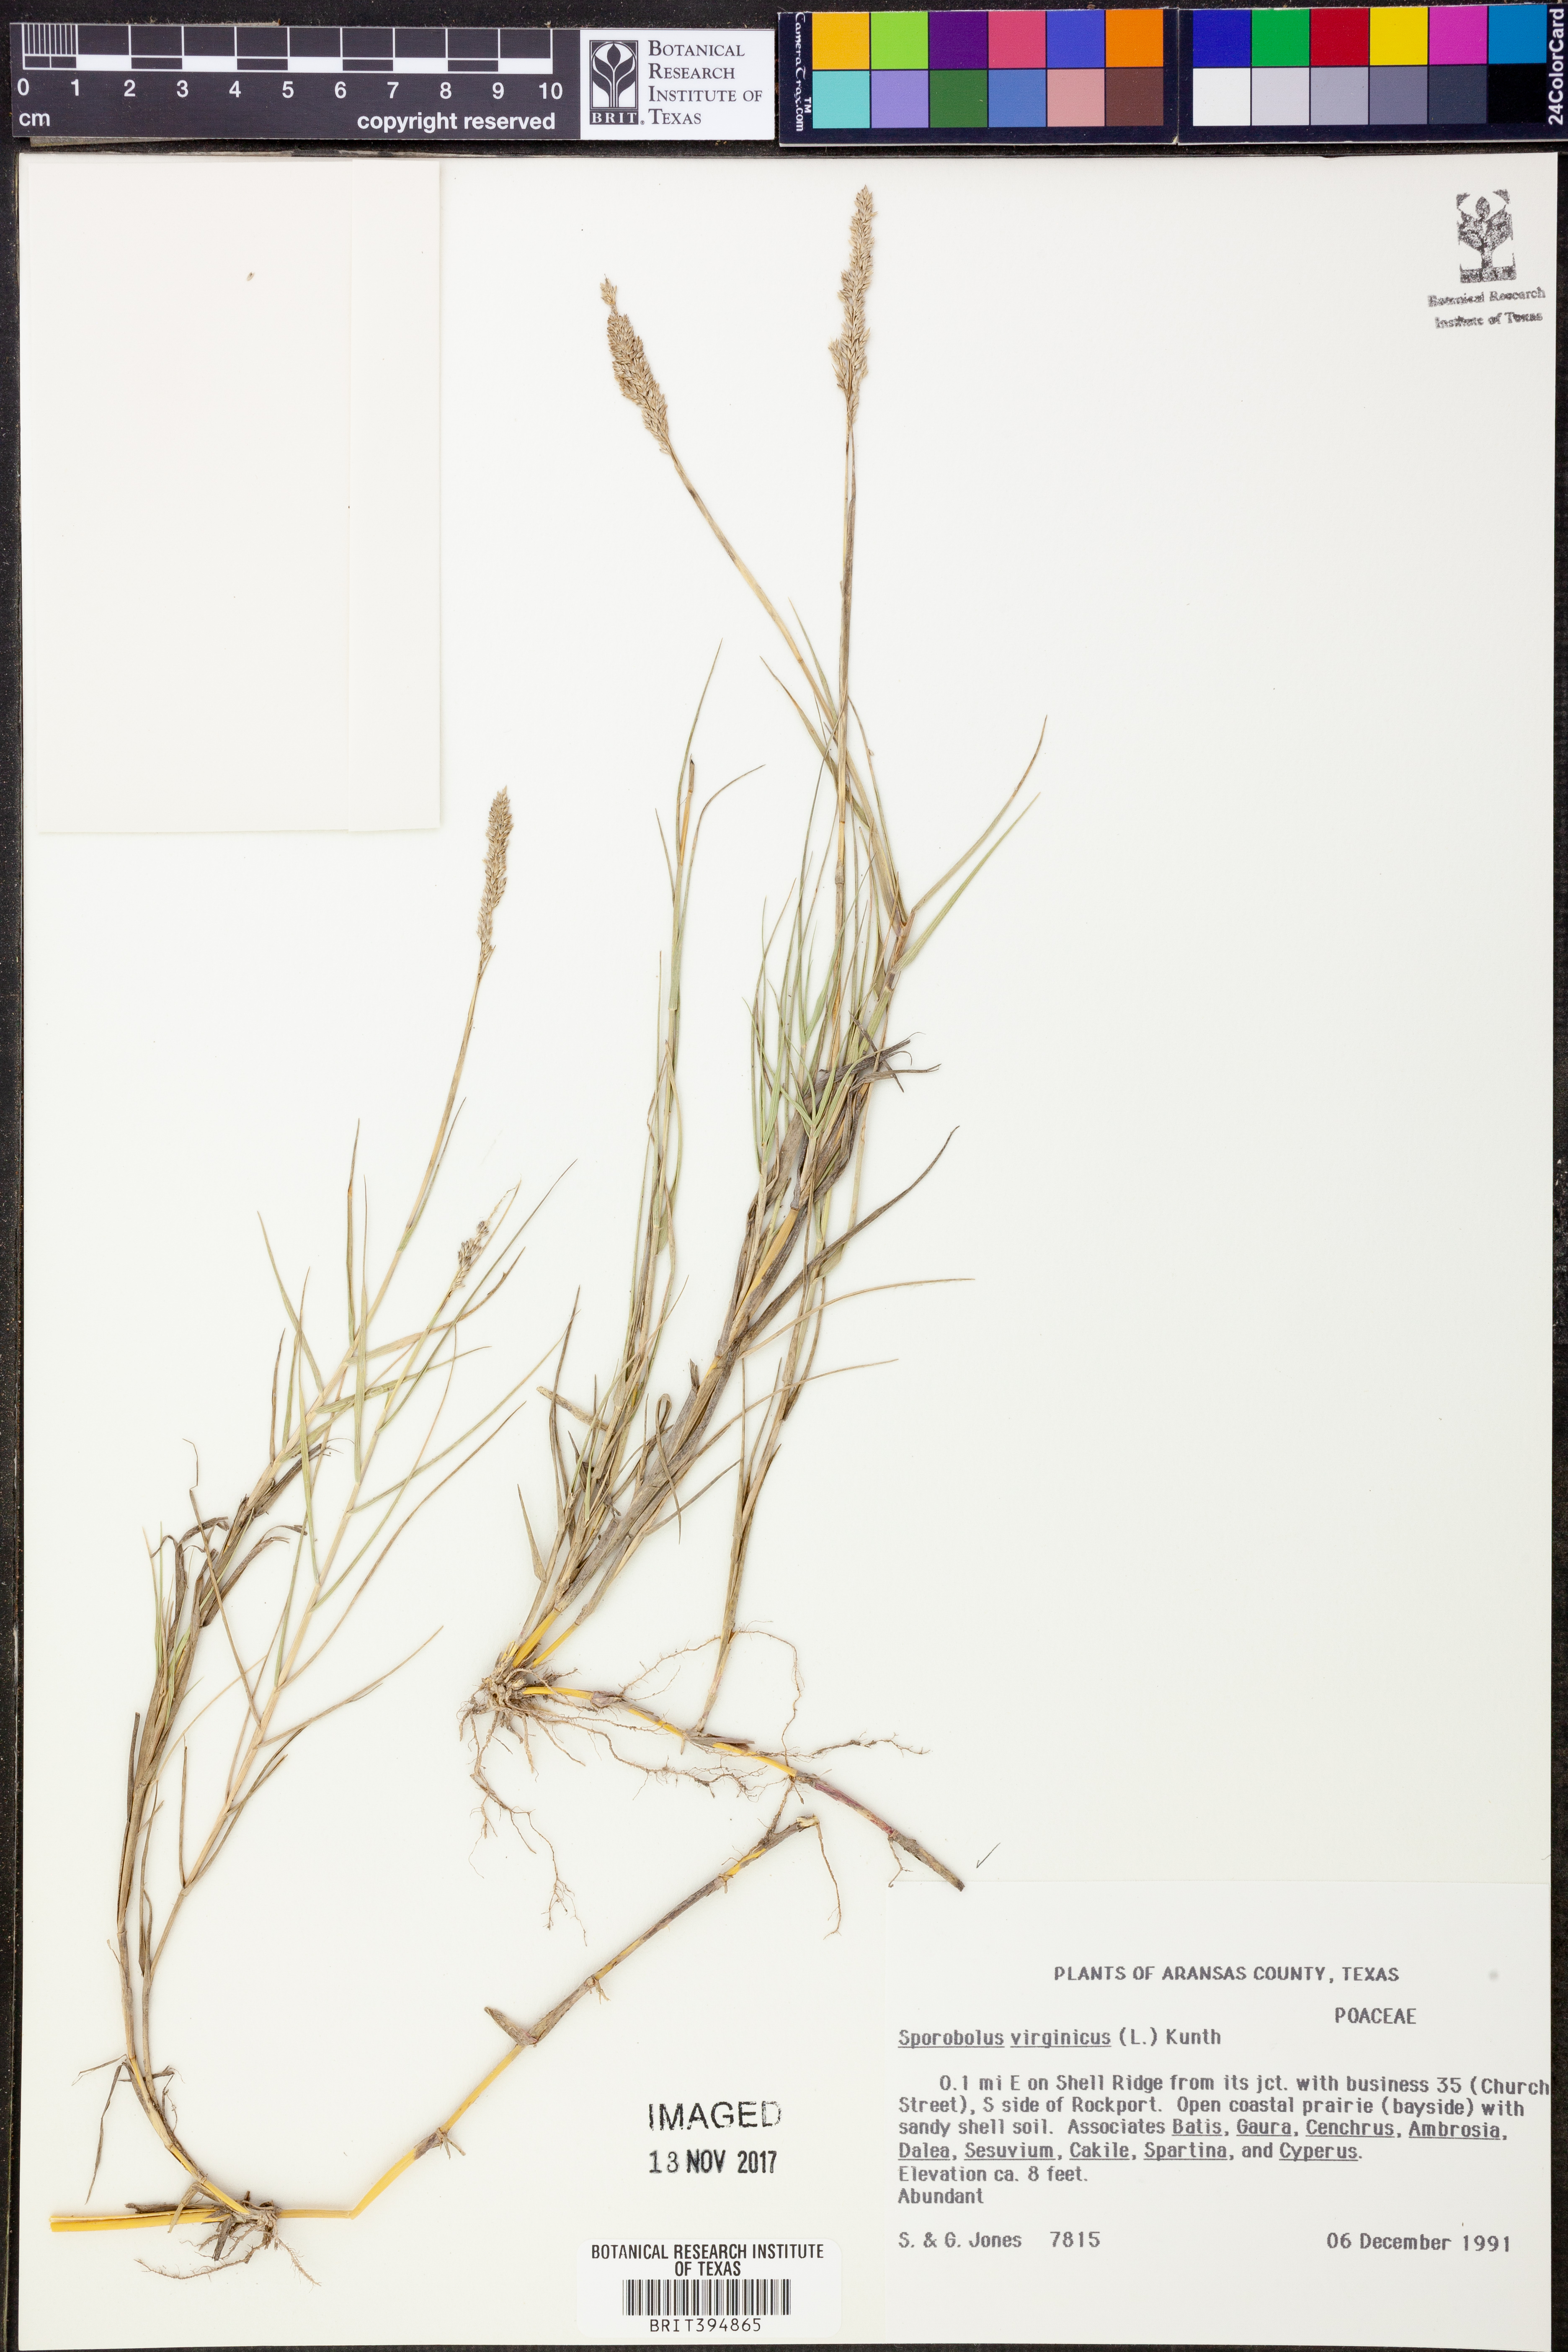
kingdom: Plantae
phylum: Tracheophyta
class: Liliopsida
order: Poales
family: Poaceae
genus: Sporobolus
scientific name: Sporobolus virginicus
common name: Beach dropseed
